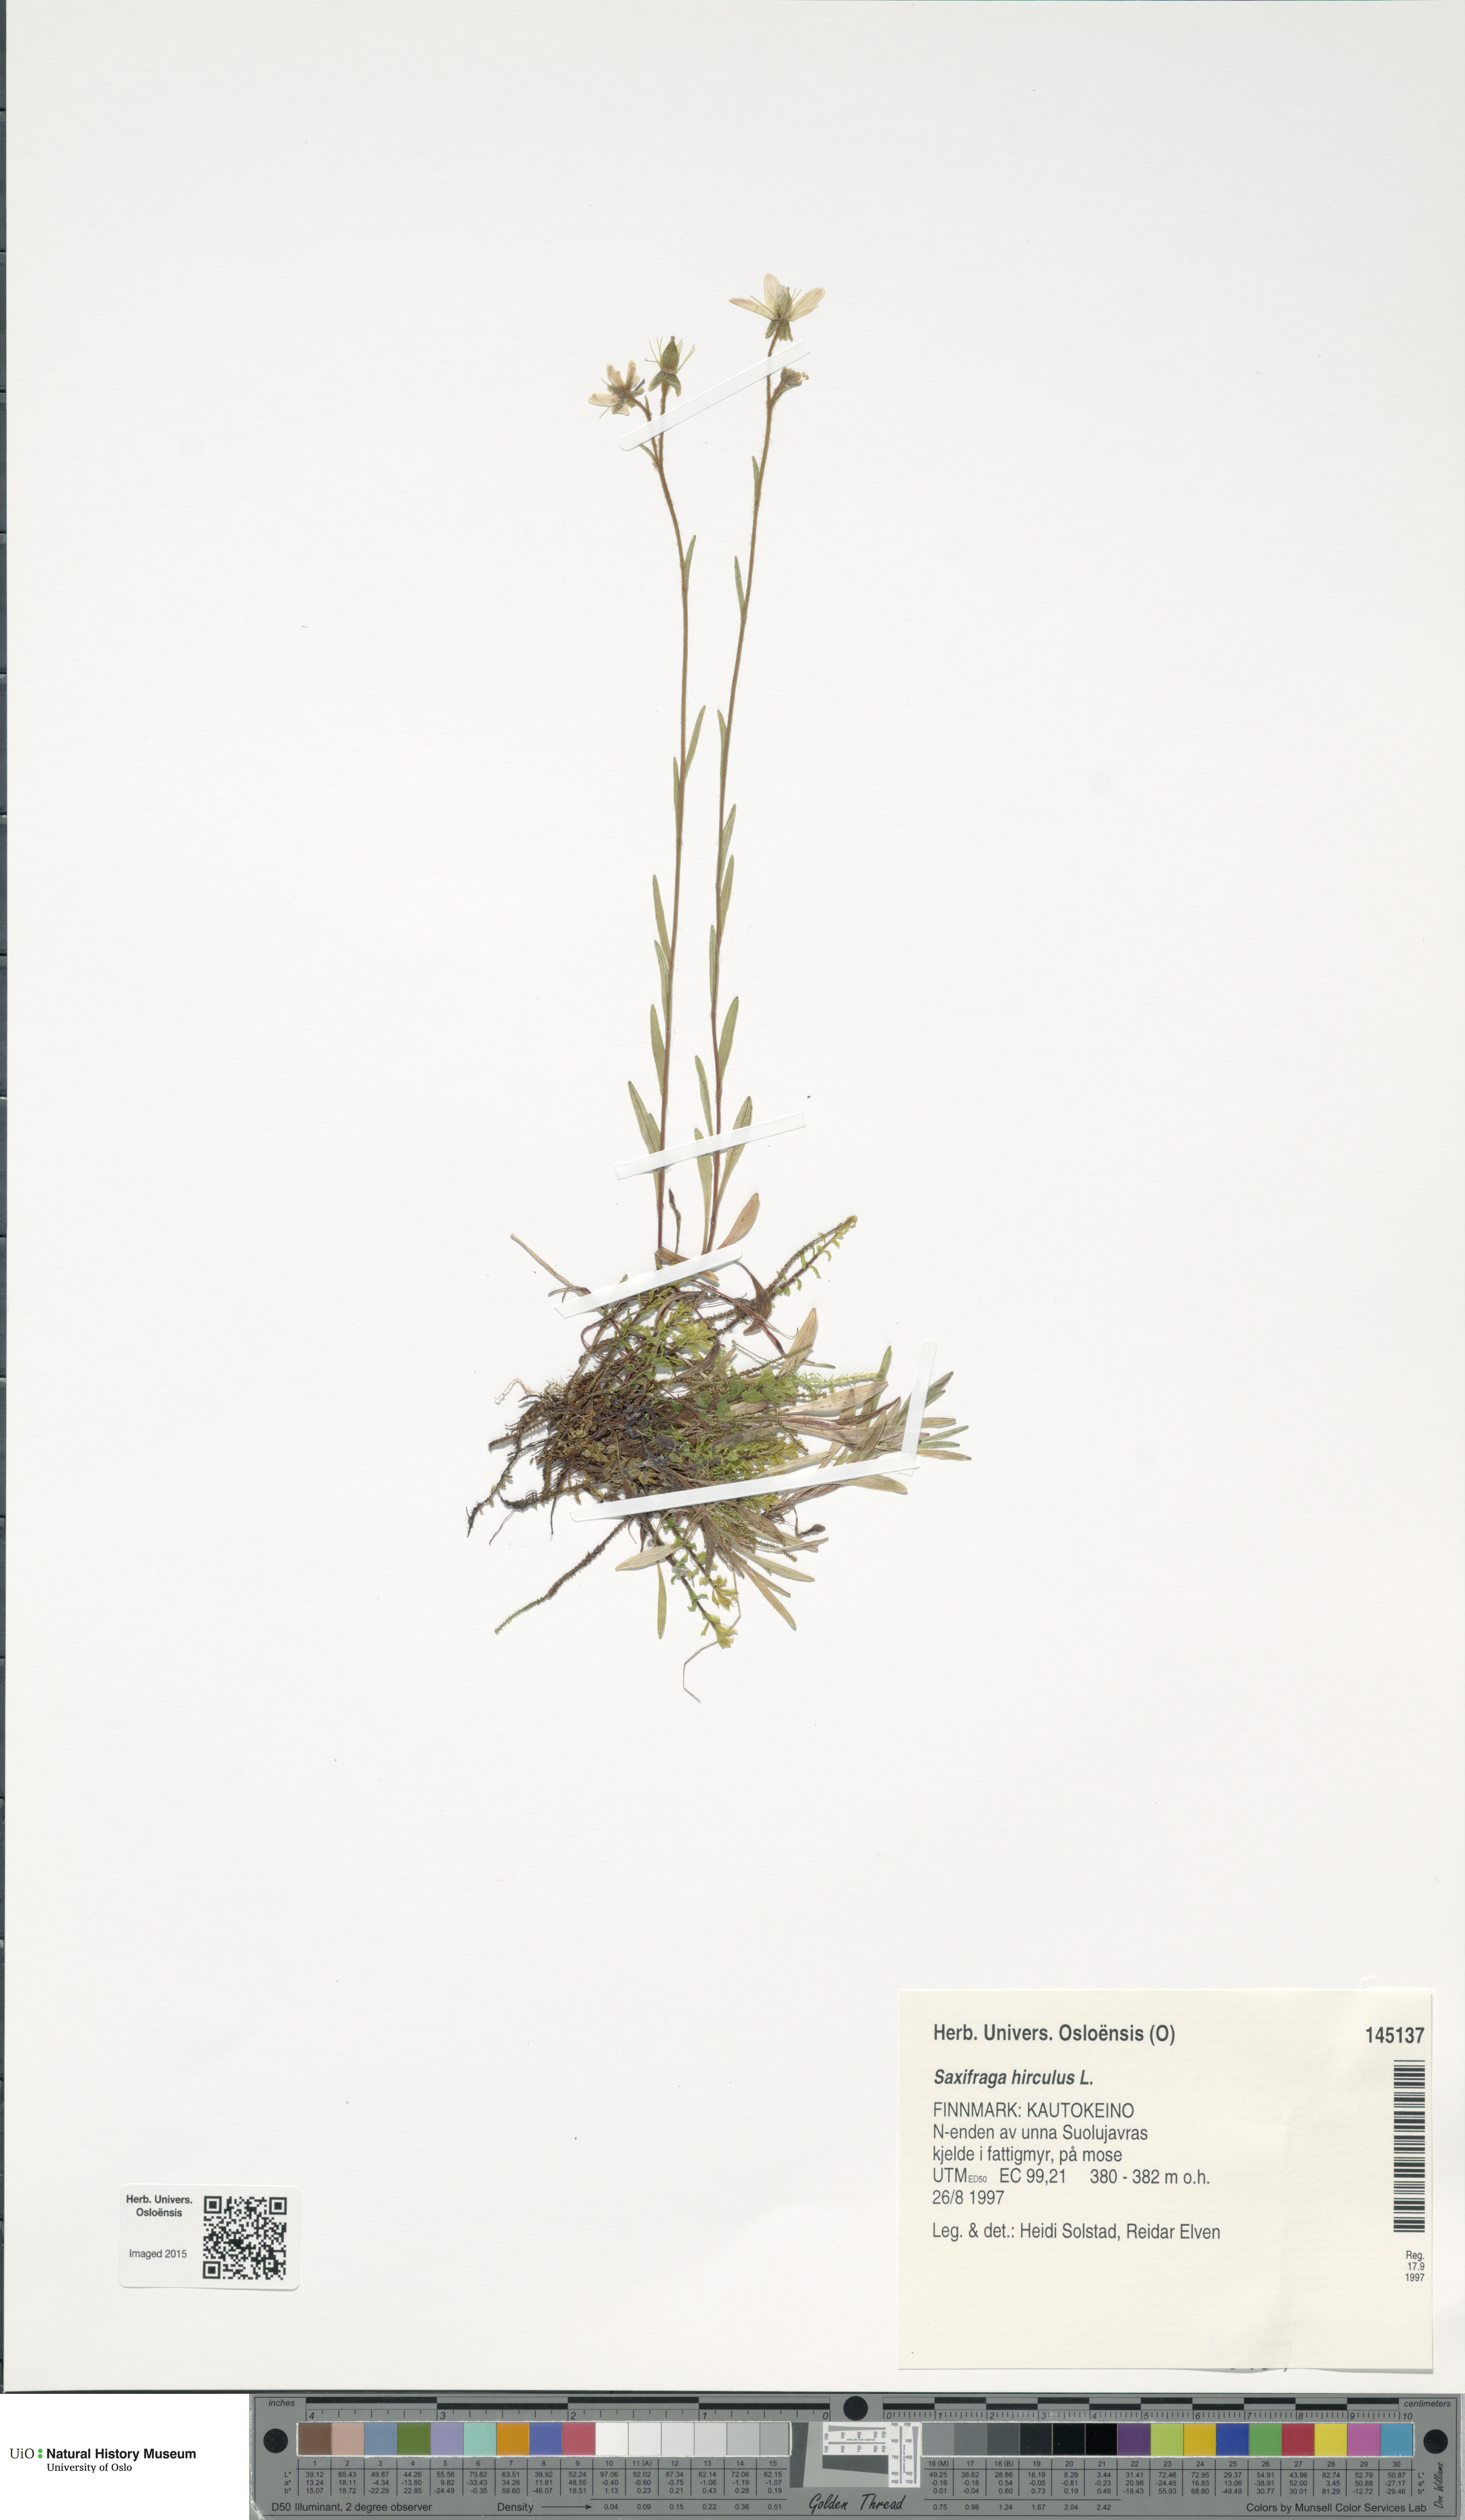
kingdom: Plantae
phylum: Tracheophyta
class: Magnoliopsida
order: Saxifragales
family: Saxifragaceae
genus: Saxifraga
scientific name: Saxifraga hirculus
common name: Yellow marsh saxifrage
